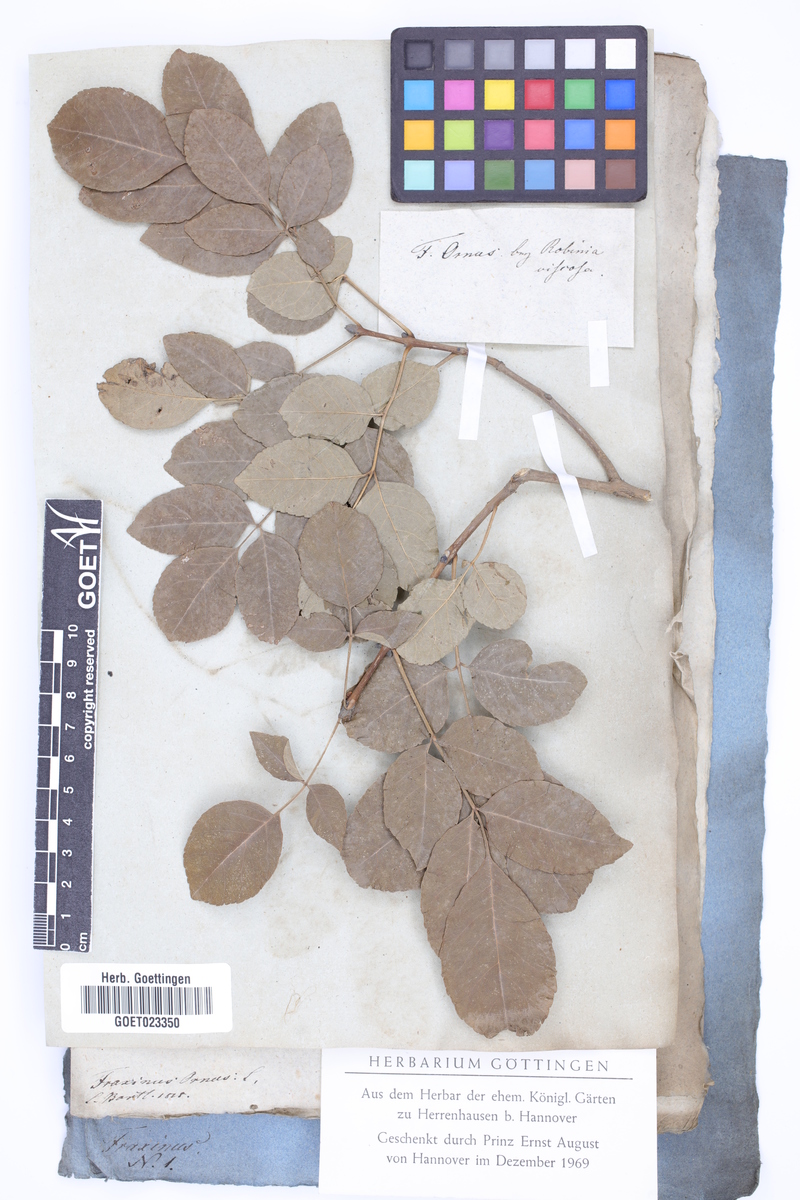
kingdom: Plantae
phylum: Tracheophyta
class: Magnoliopsida
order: Lamiales
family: Oleaceae
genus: Fraxinus
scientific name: Fraxinus ornus
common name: Manna ash
